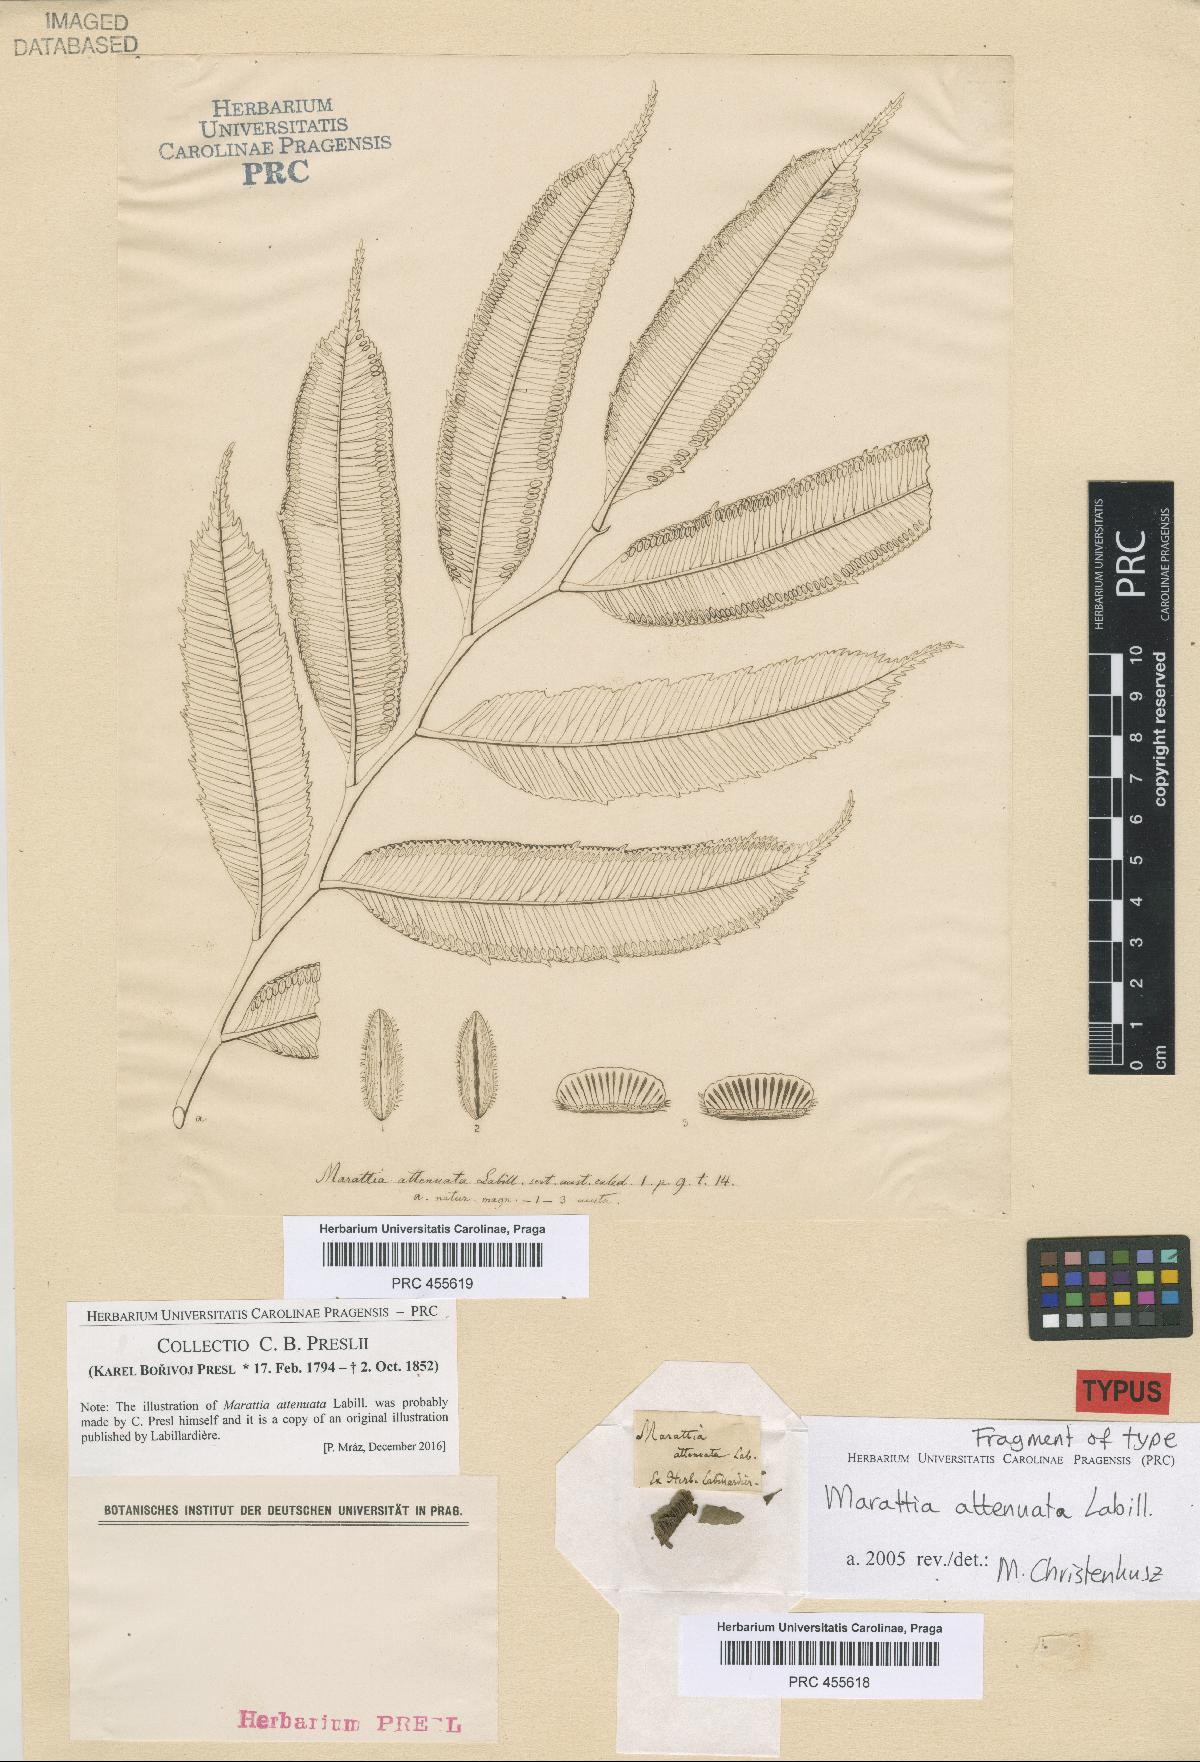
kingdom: Plantae
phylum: Tracheophyta
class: Polypodiopsida
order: Marattiales
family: Marattiaceae
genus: Ptisana
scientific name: Ptisana attenuata
